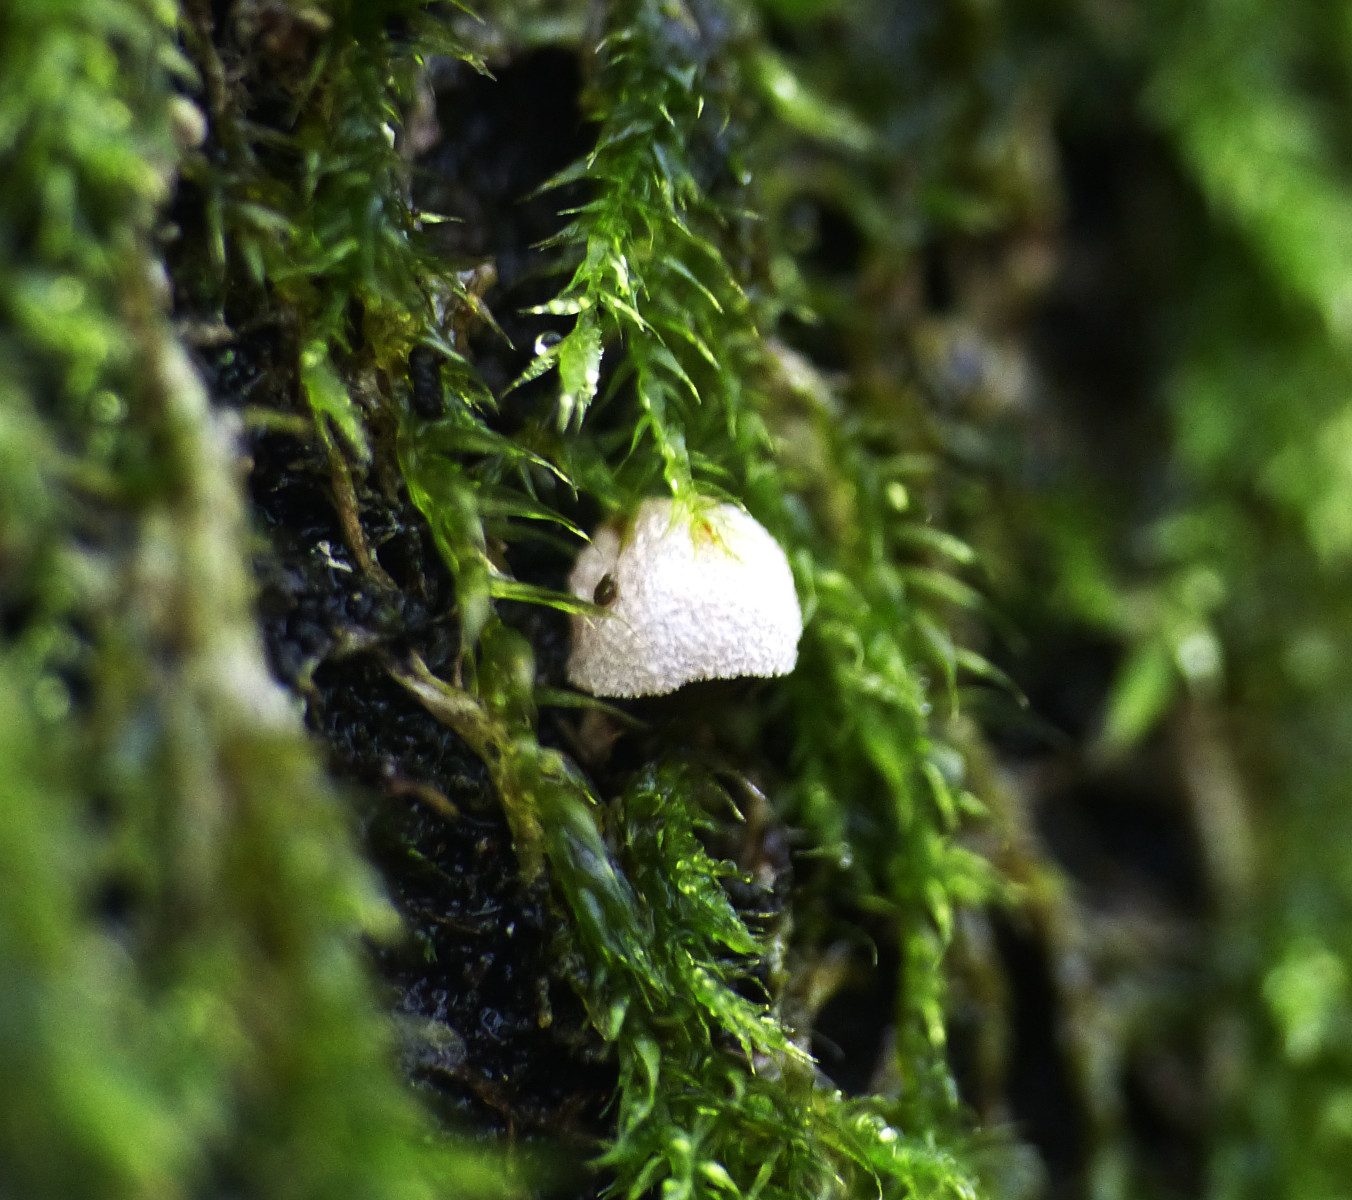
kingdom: Fungi
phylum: Basidiomycota
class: Agaricomycetes
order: Agaricales
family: Chromocyphellaceae
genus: Chromocyphella
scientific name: Chromocyphella muscicola
